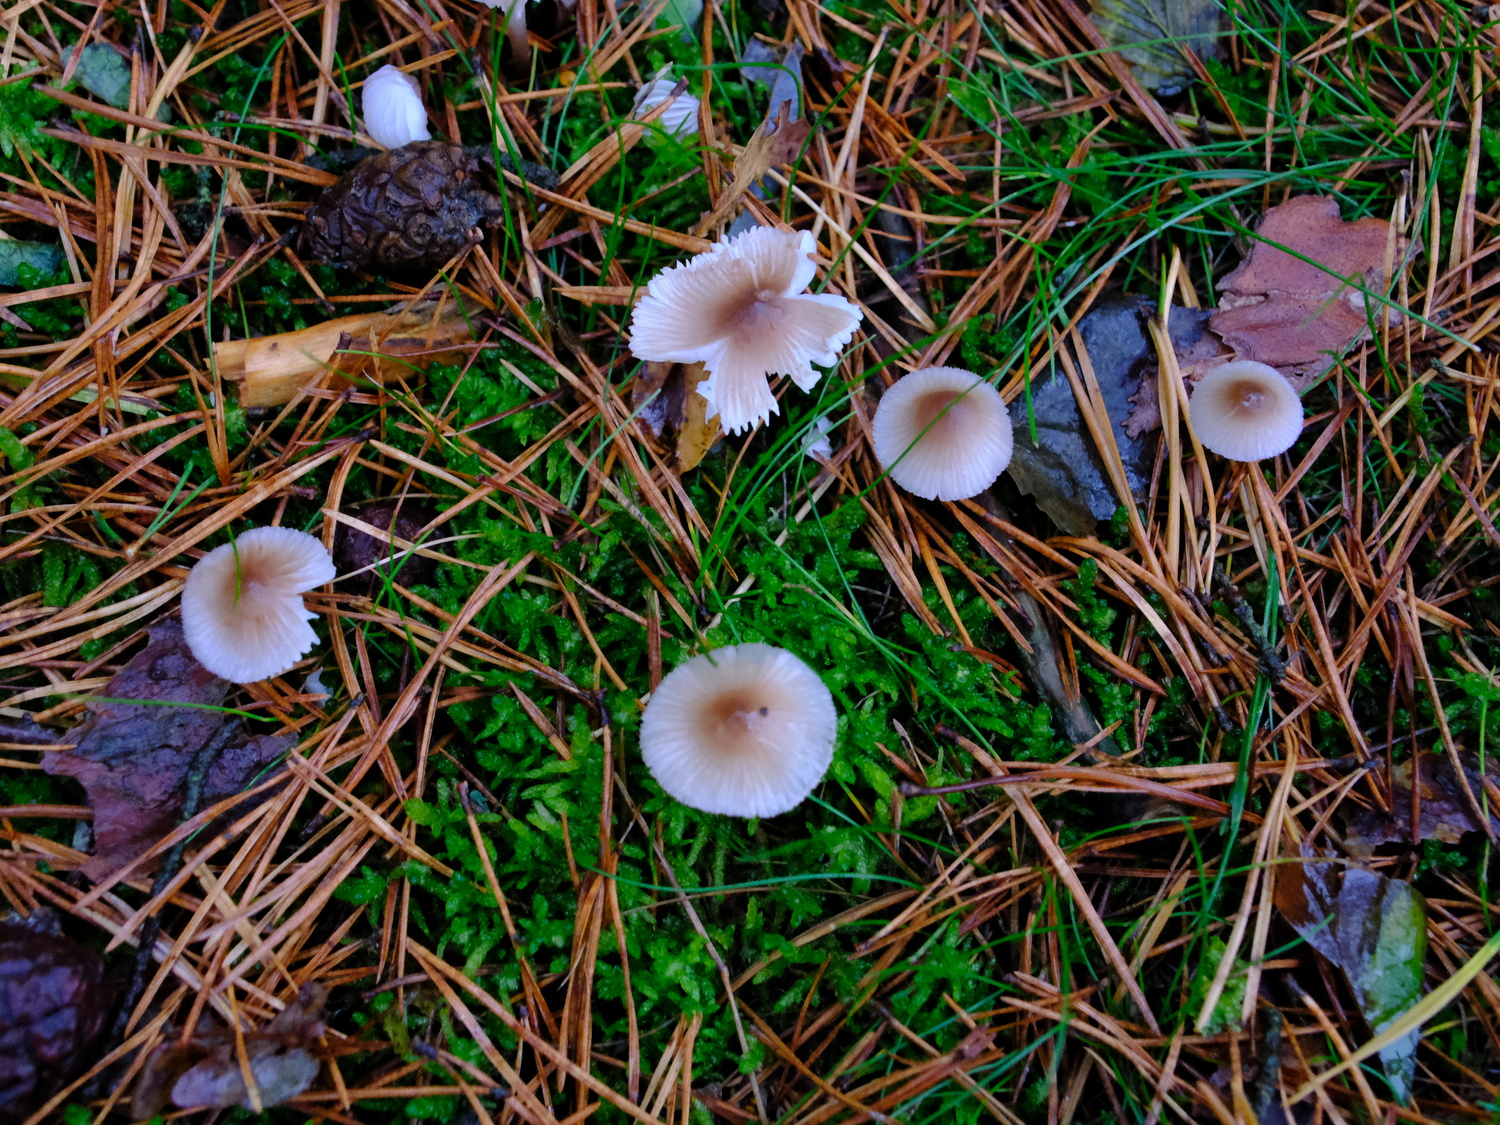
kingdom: Fungi
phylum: Basidiomycota
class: Agaricomycetes
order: Agaricales
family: Mycenaceae
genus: Mycena
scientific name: Mycena zephirus
